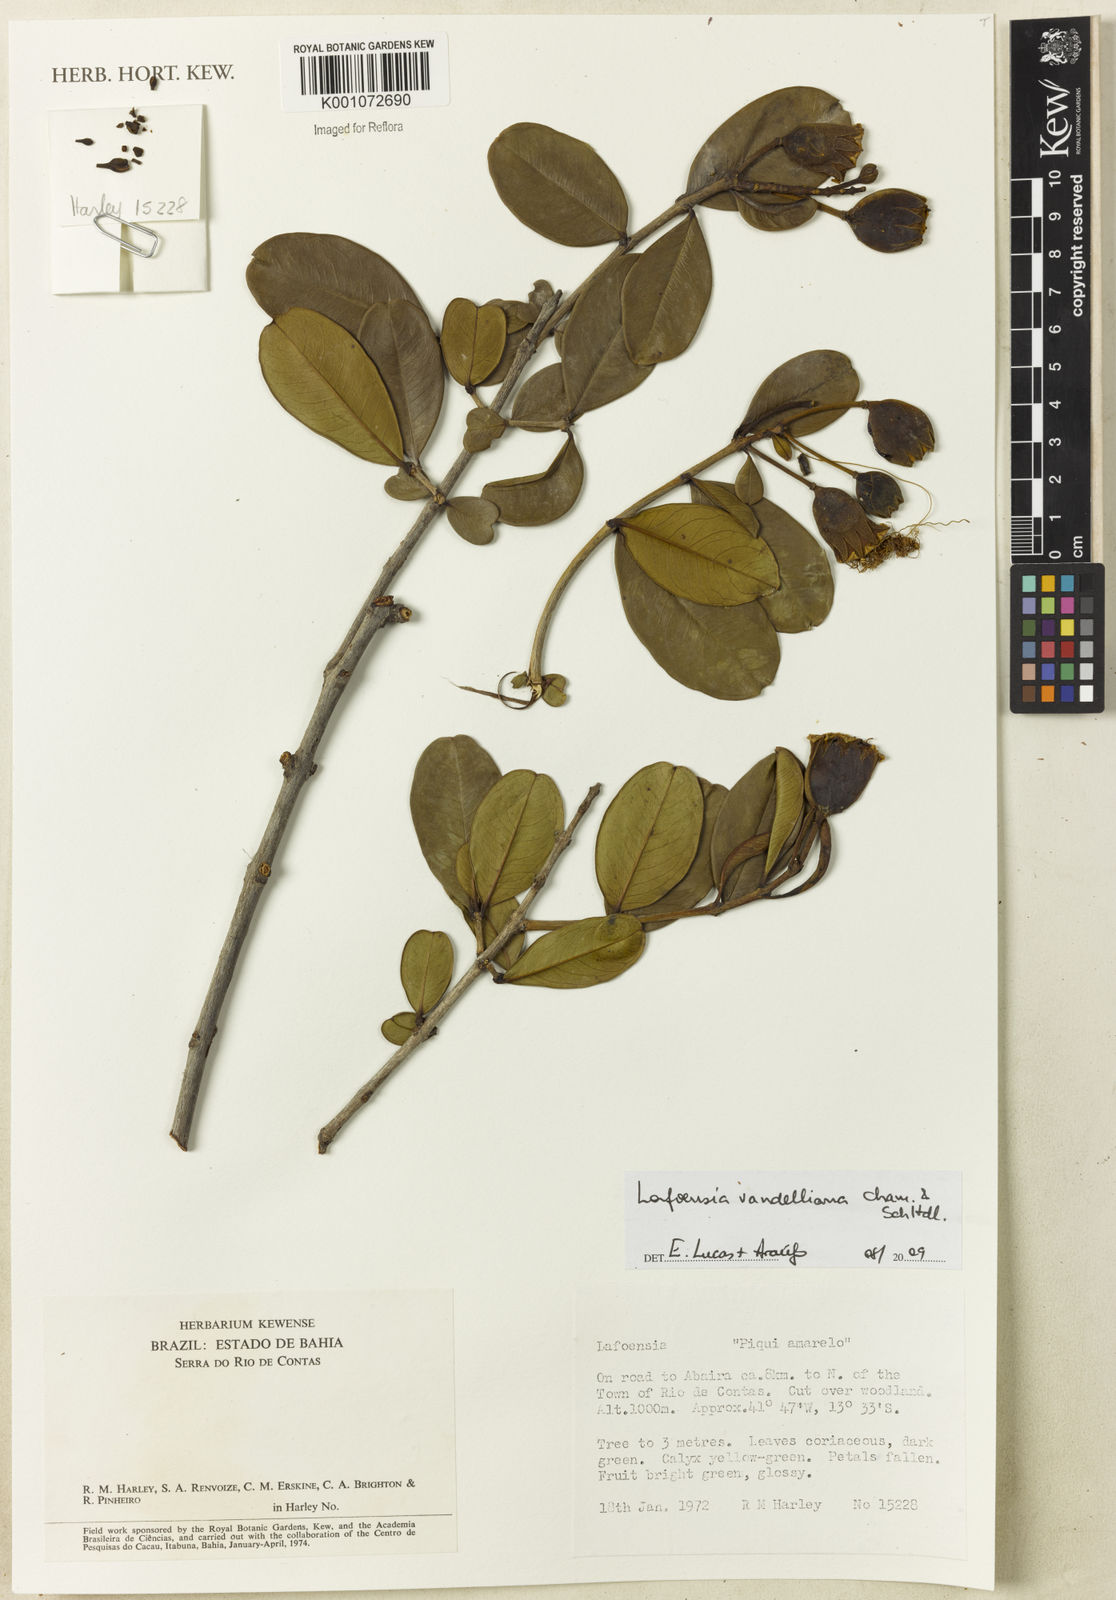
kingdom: Plantae
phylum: Tracheophyta
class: Magnoliopsida
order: Myrtales
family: Lythraceae
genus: Lafoensia
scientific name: Lafoensia vandelliana
